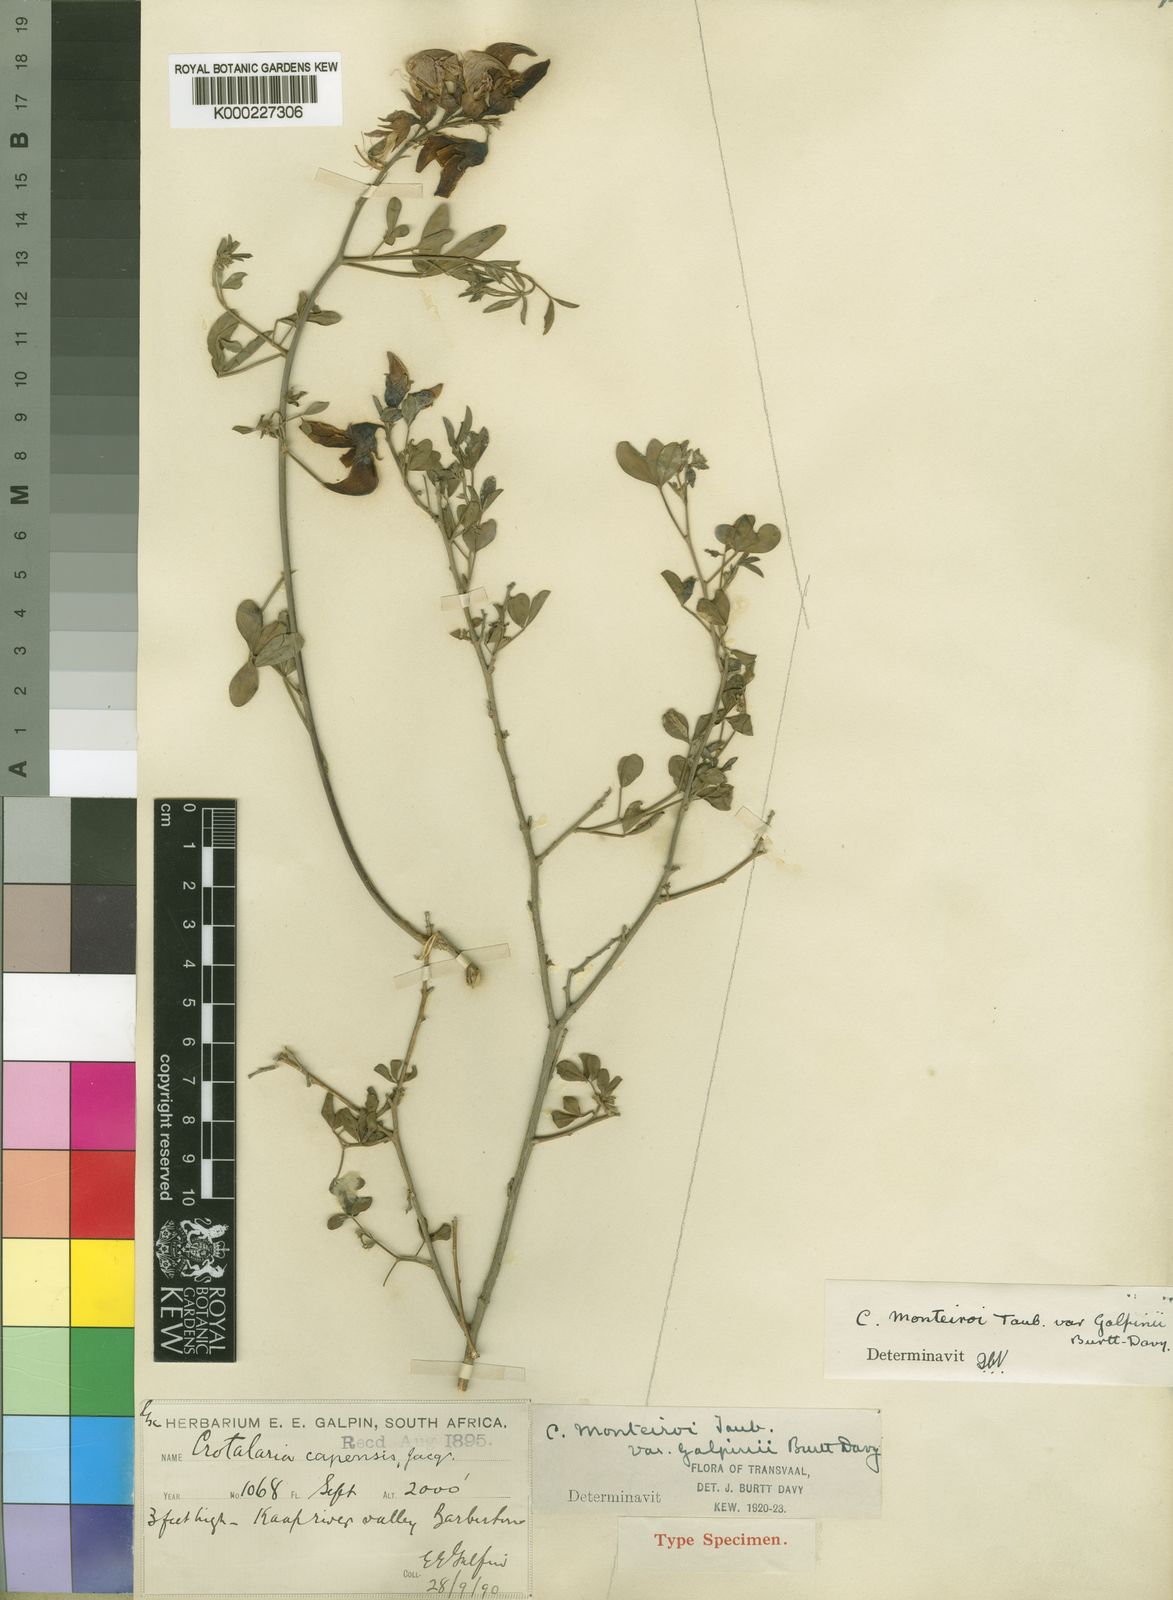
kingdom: Plantae
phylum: Tracheophyta
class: Magnoliopsida
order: Fabales
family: Fabaceae
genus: Crotalaria
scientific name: Crotalaria monteiroi
